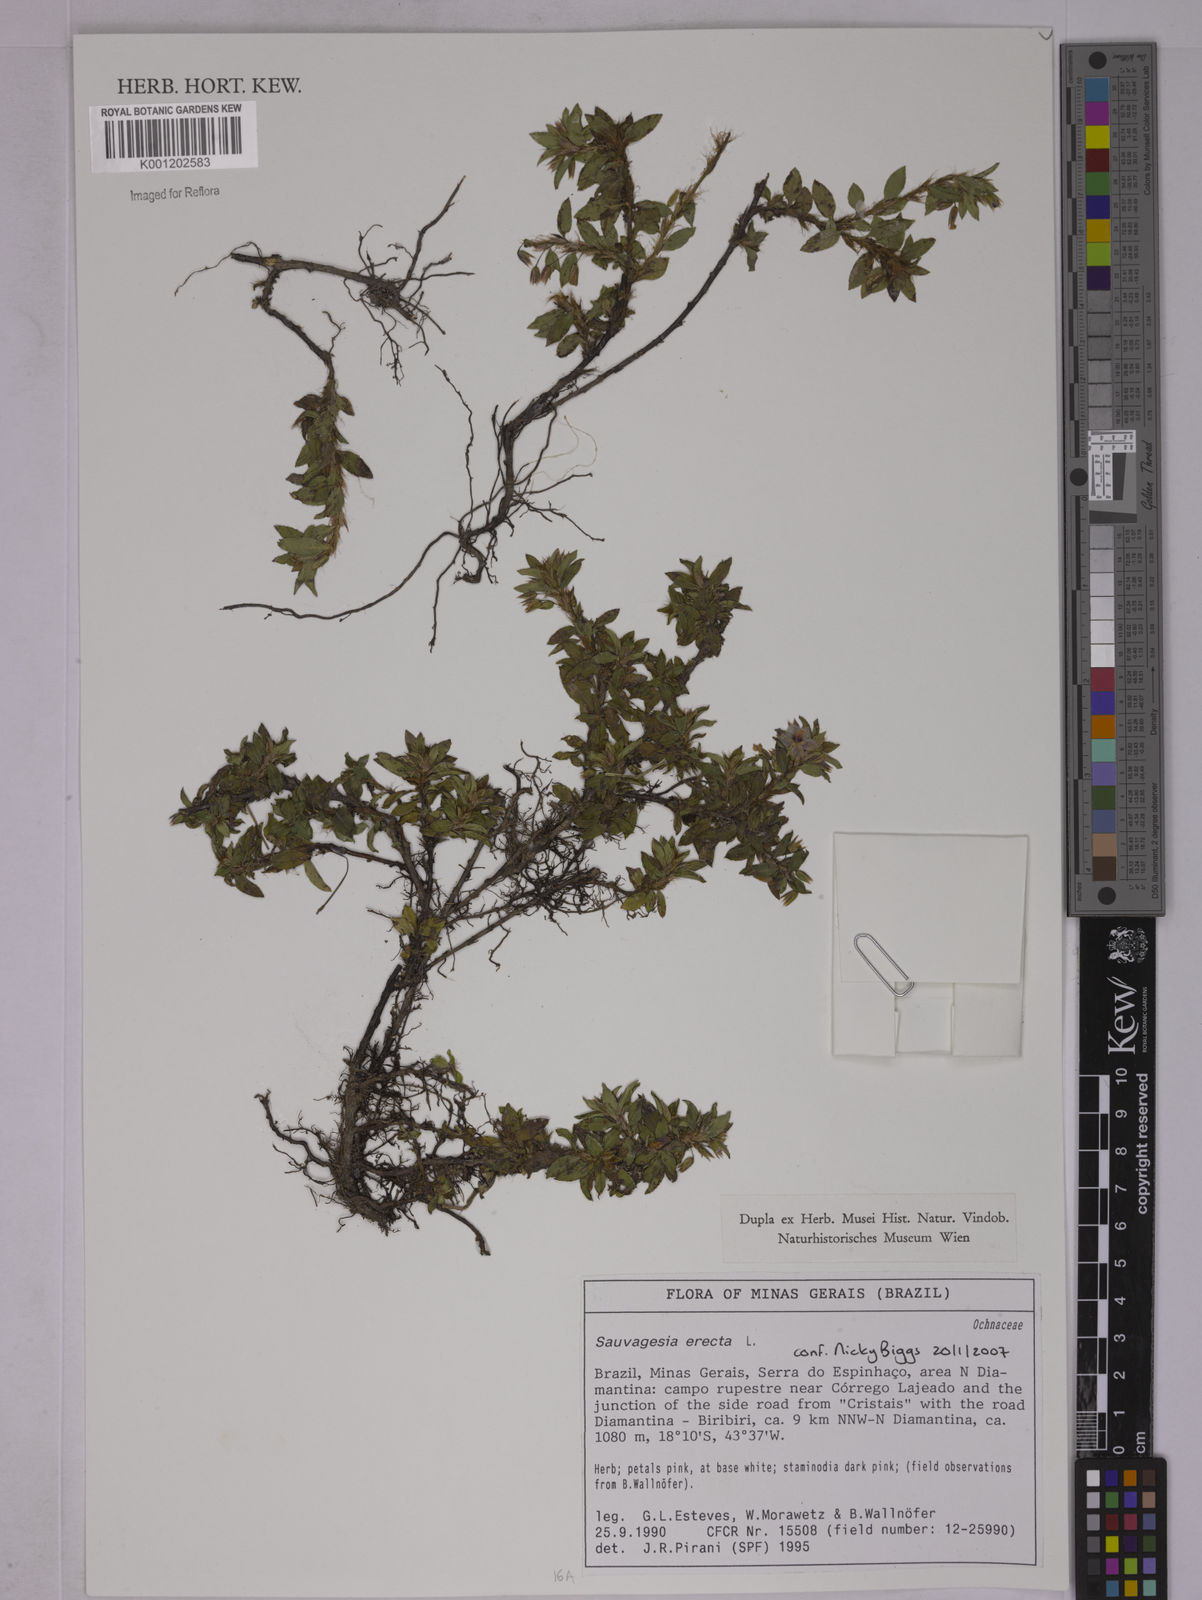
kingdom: Plantae
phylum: Tracheophyta
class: Magnoliopsida
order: Malpighiales
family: Ochnaceae
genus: Sauvagesia
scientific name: Sauvagesia erecta
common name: Creole tea
